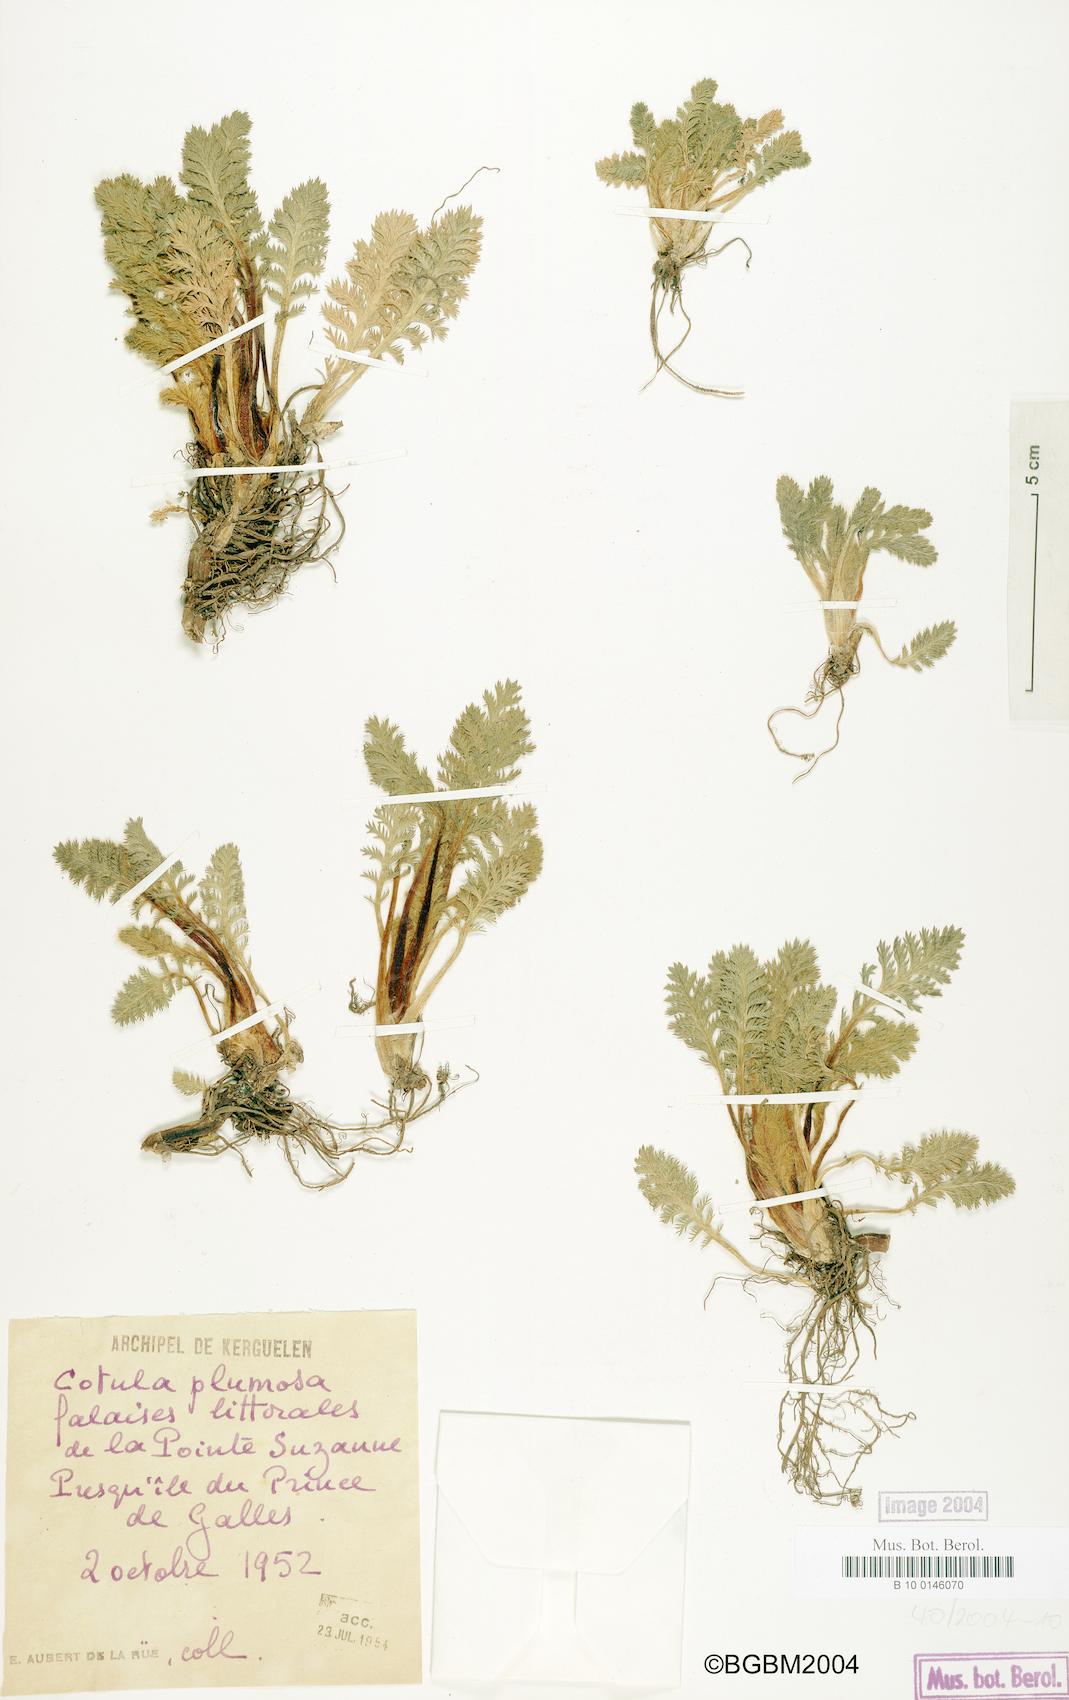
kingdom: Plantae
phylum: Tracheophyta
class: Magnoliopsida
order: Asterales
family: Asteraceae
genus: Leptinella
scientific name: Leptinella plumosa
